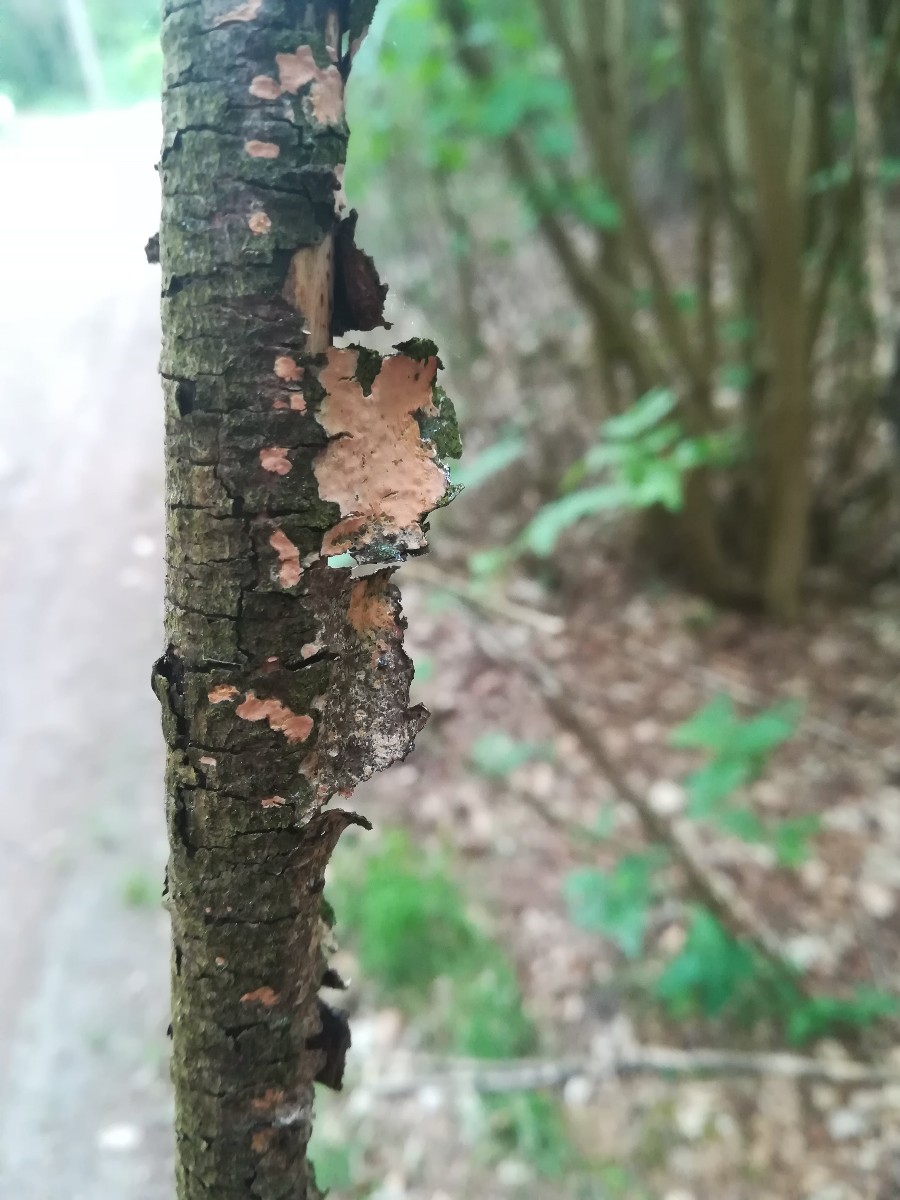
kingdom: Fungi
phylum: Basidiomycota
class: Agaricomycetes
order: Russulales
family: Peniophoraceae
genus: Peniophora
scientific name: Peniophora incarnata
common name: laksefarvet voksskind
